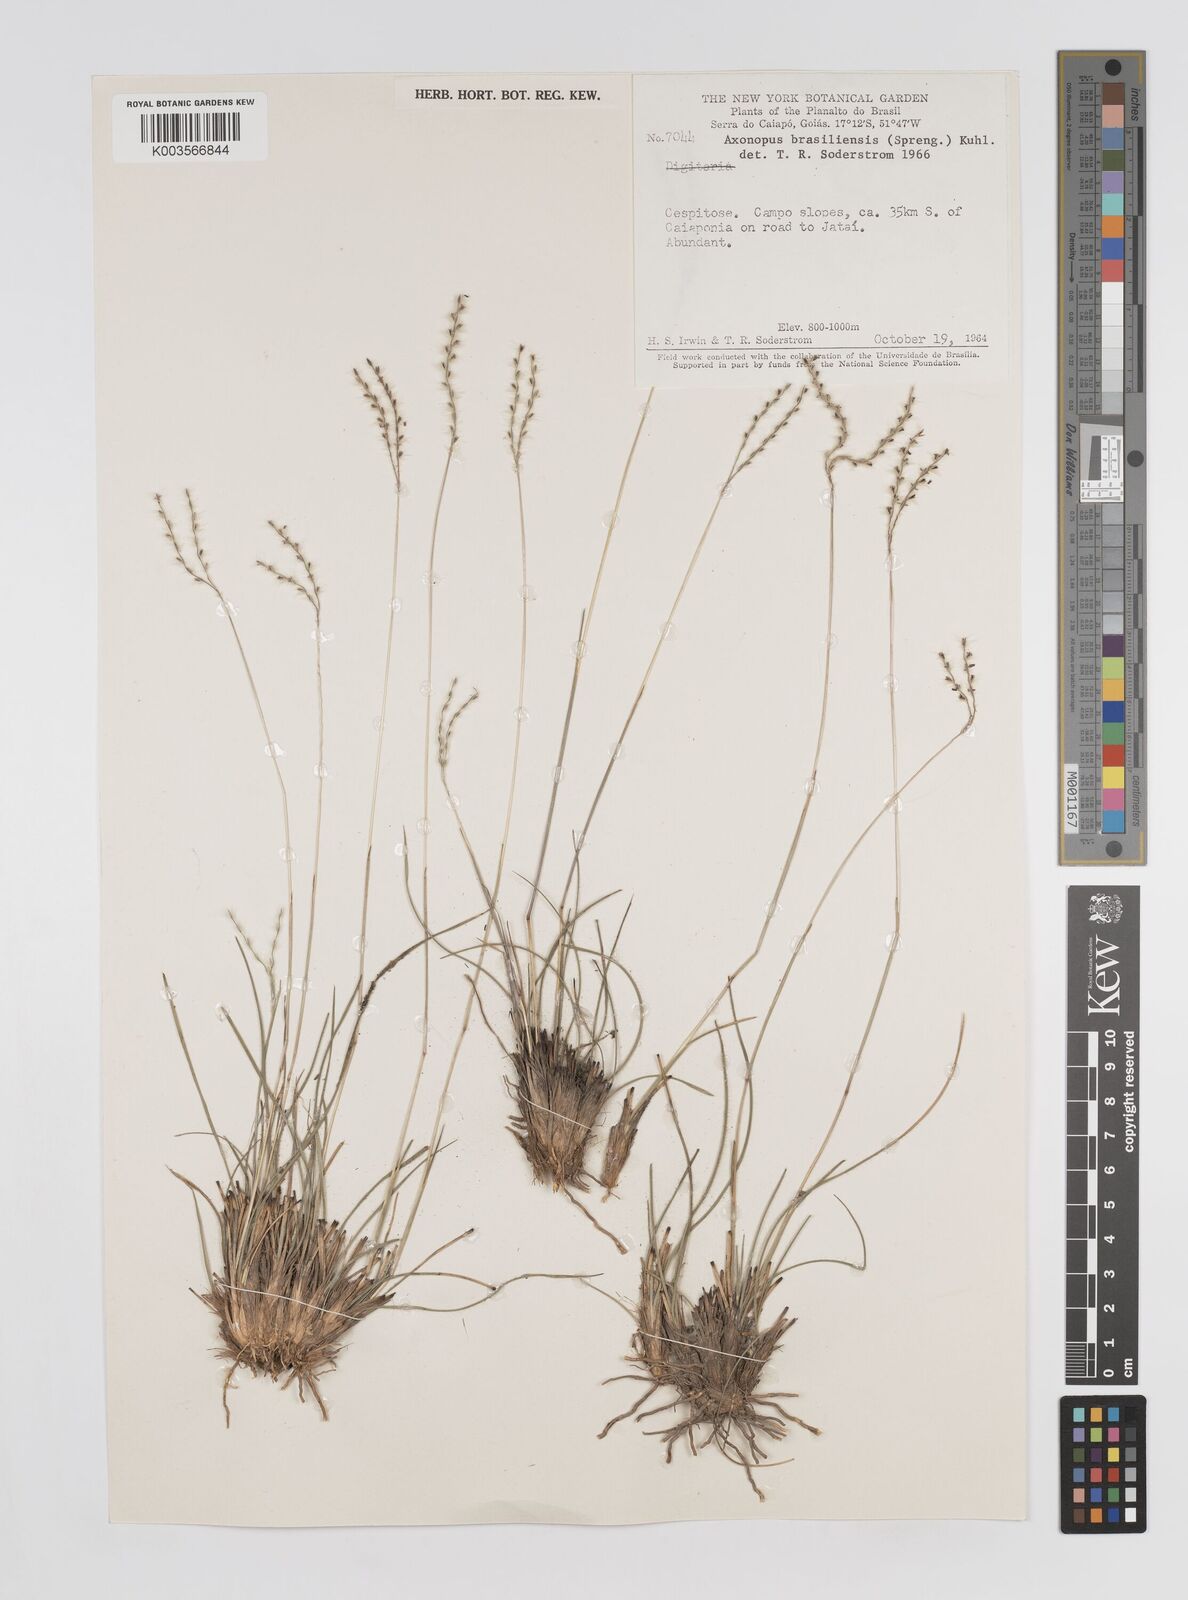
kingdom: Plantae
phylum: Tracheophyta
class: Liliopsida
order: Poales
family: Poaceae
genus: Axonopus
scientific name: Axonopus brasiliensis
